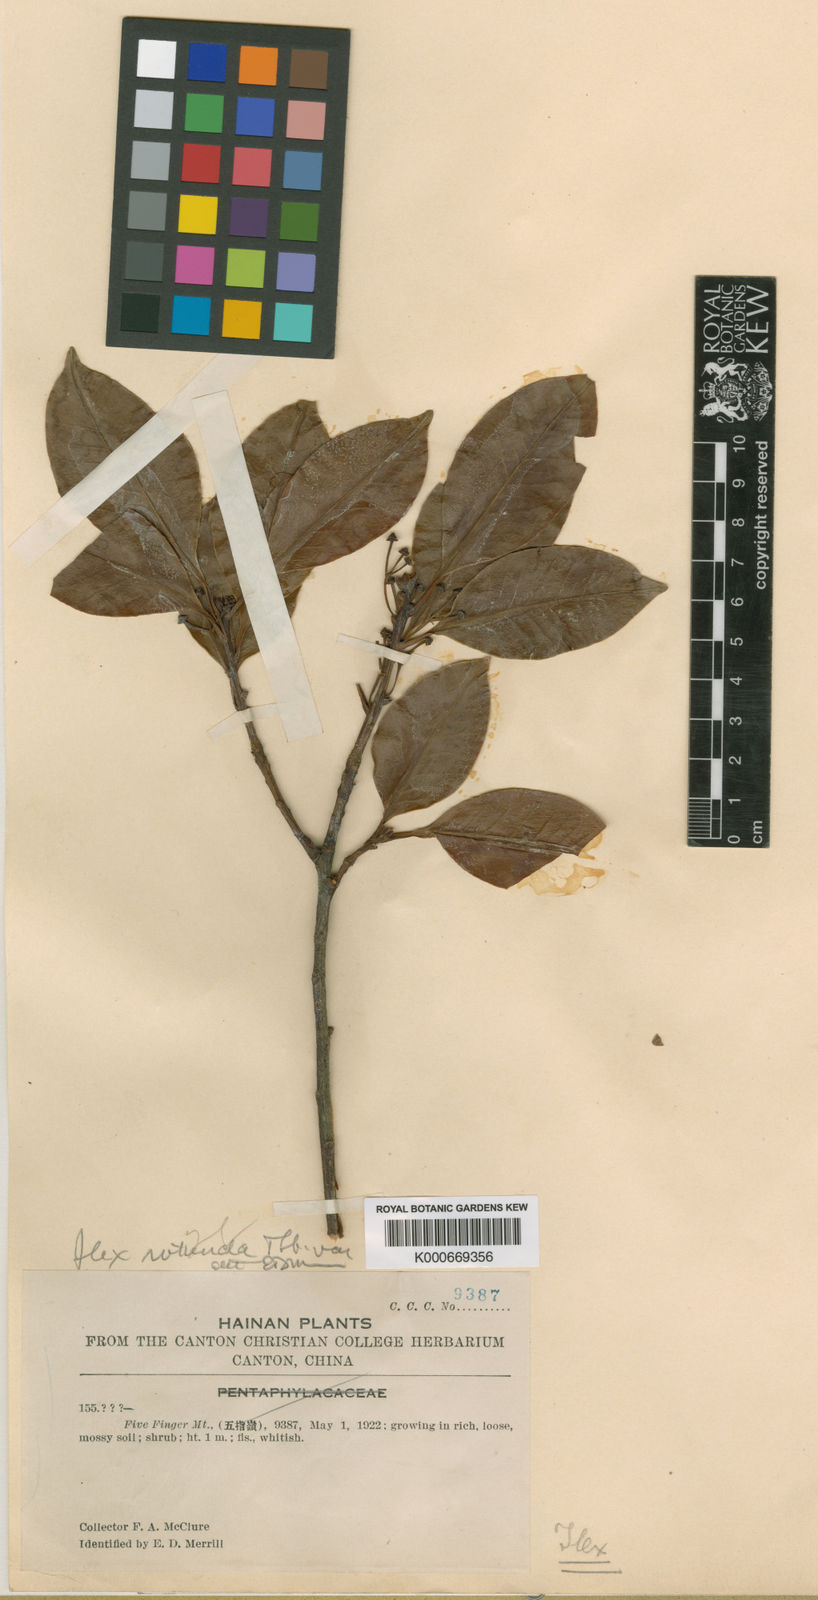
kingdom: Plantae
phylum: Tracheophyta
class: Magnoliopsida
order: Aquifoliales
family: Aquifoliaceae
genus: Ilex
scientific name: Ilex sterrophylla
